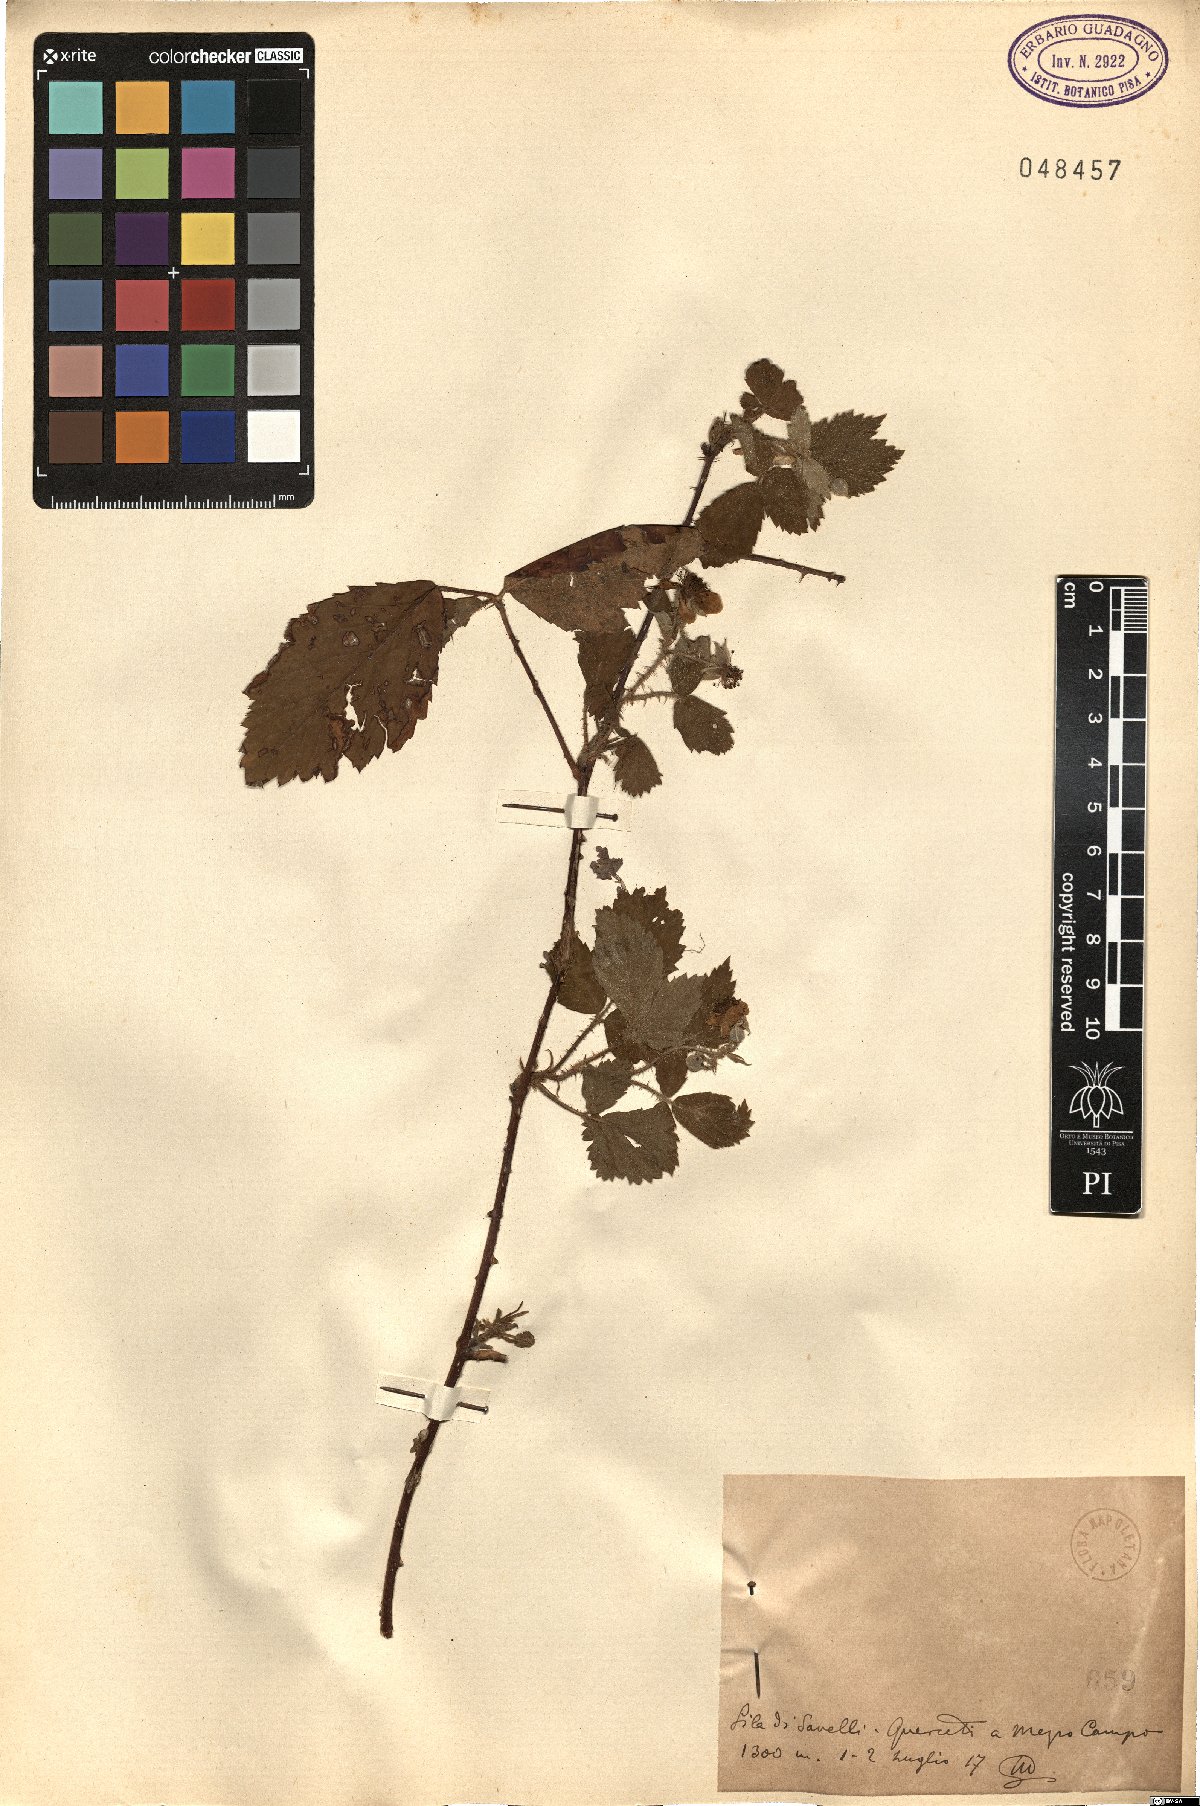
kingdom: Plantae
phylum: Tracheophyta
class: Magnoliopsida
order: Rosales
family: Rosaceae
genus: Rubus
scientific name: Rubus
